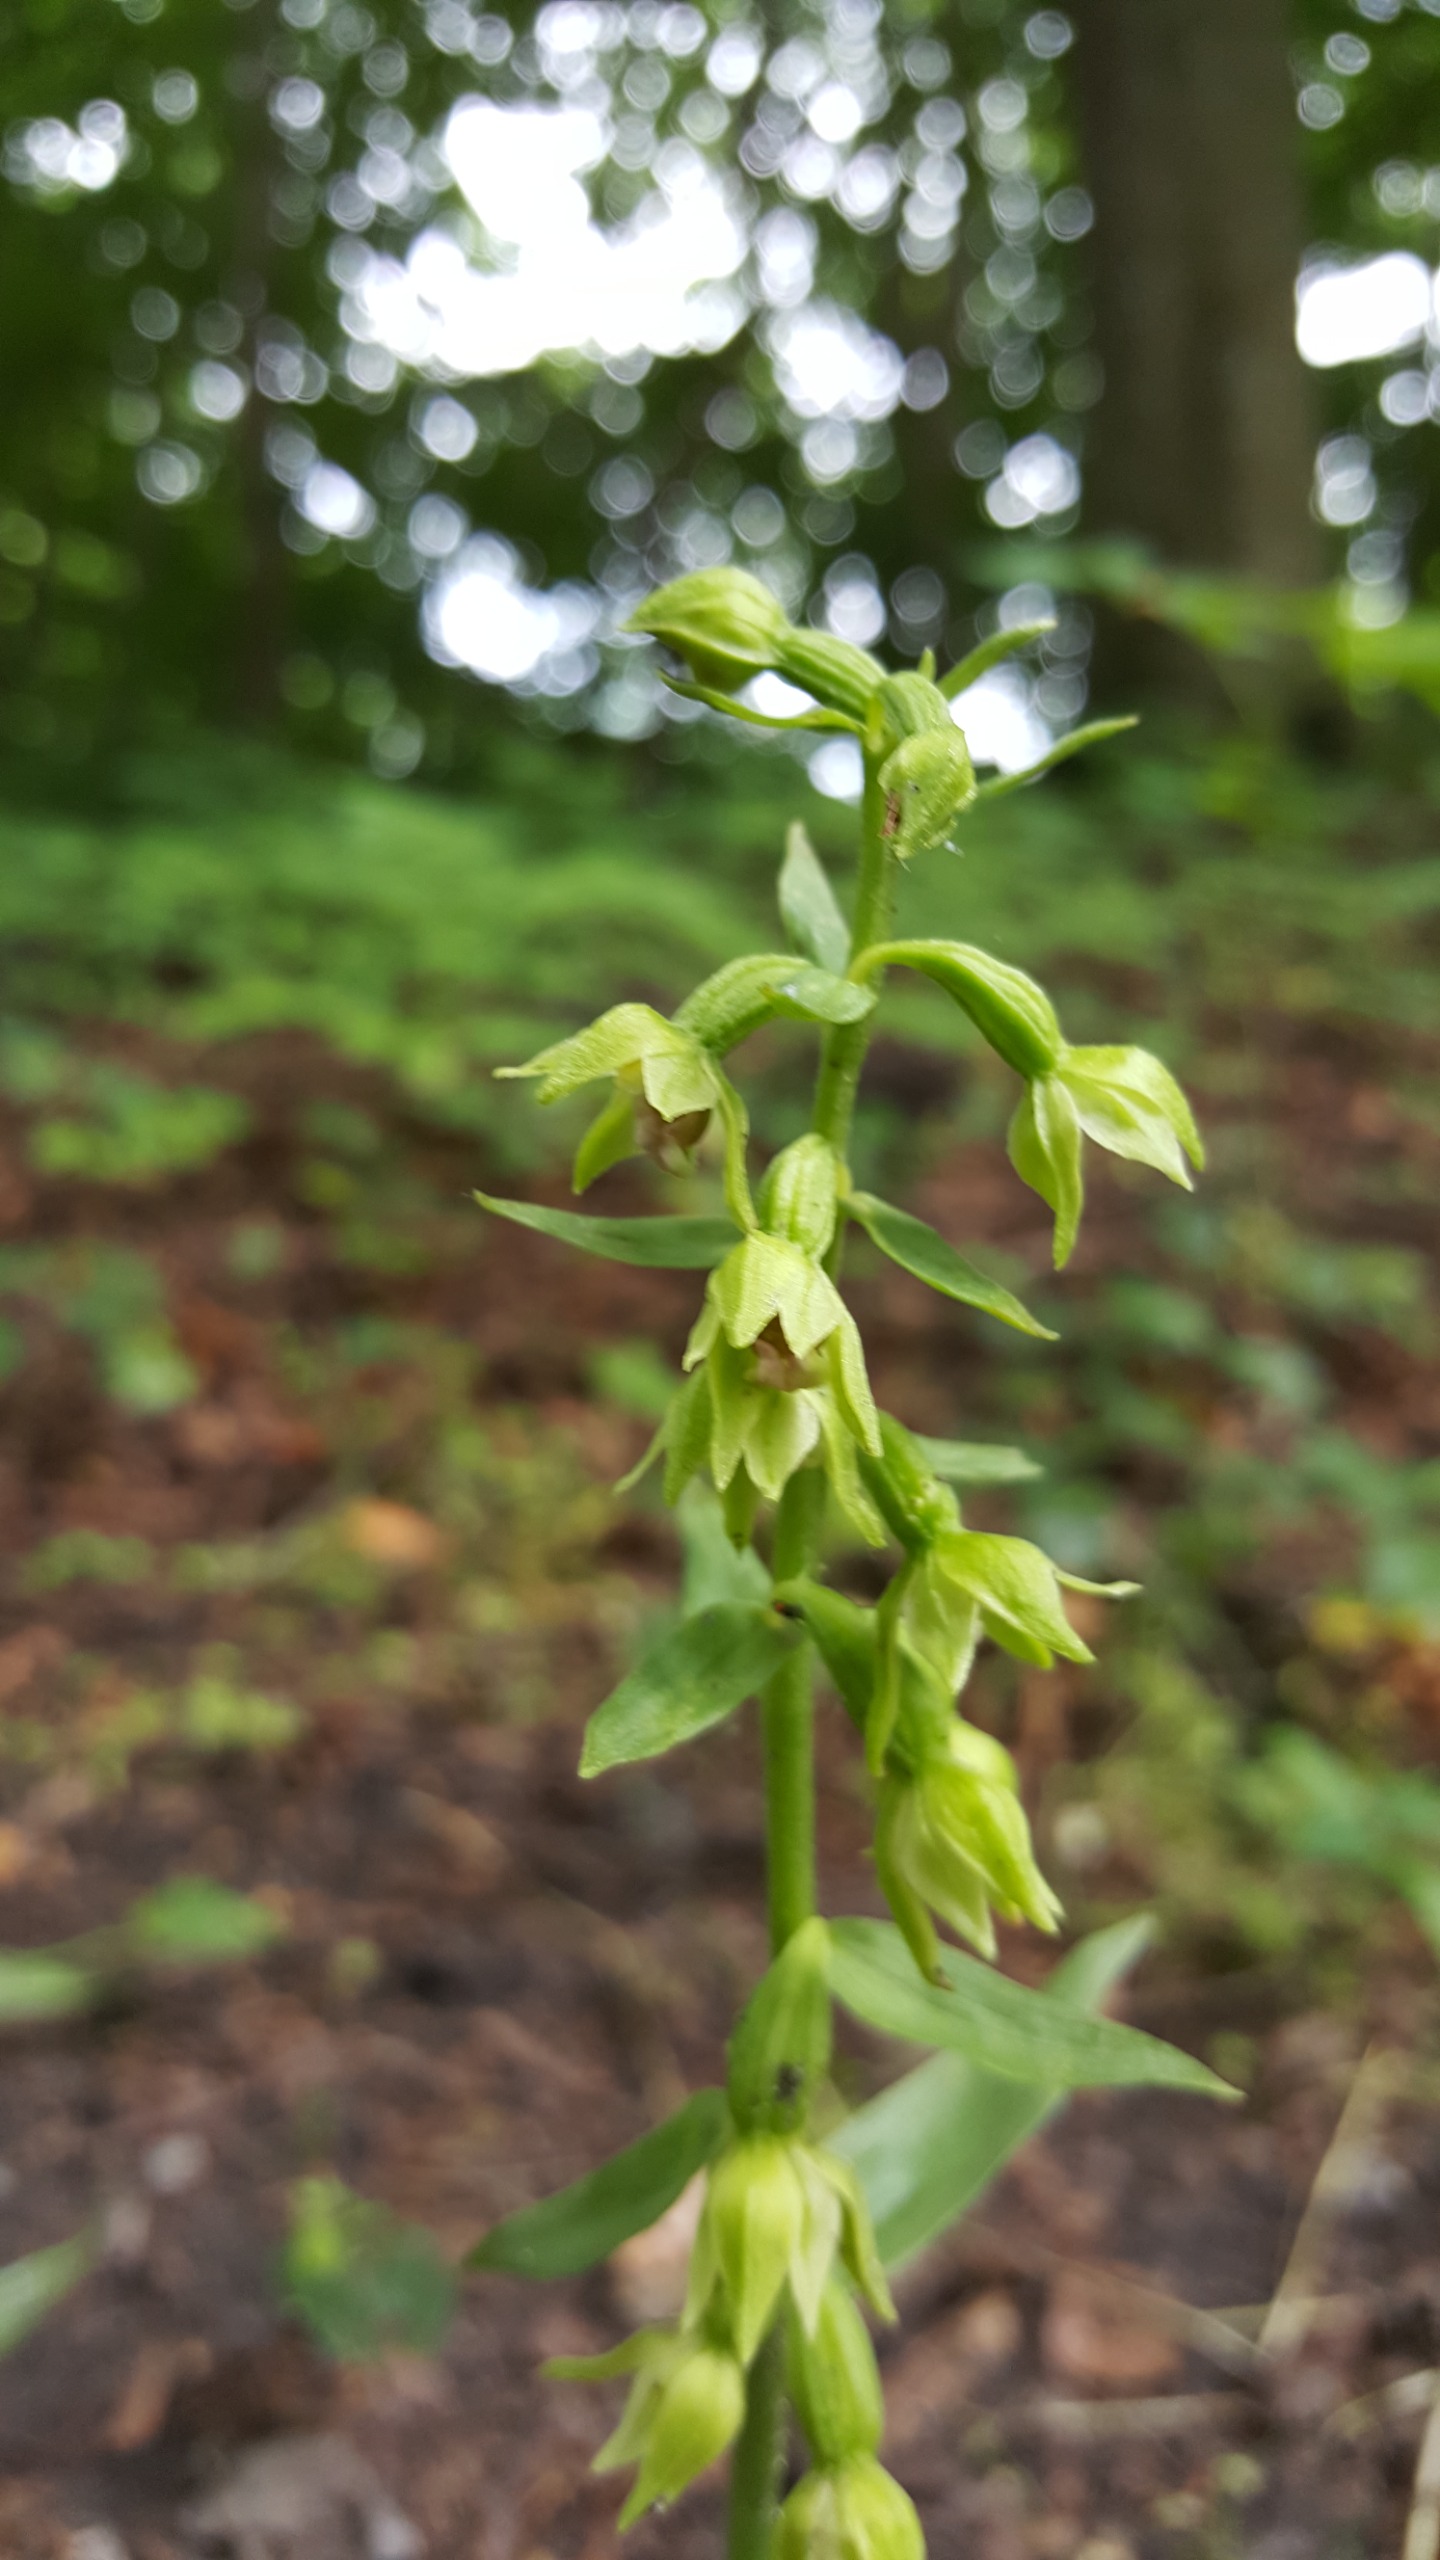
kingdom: Plantae
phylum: Tracheophyta
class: Liliopsida
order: Asparagales
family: Orchidaceae
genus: Epipactis
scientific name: Epipactis helleborine
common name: Skov-hullæbe
